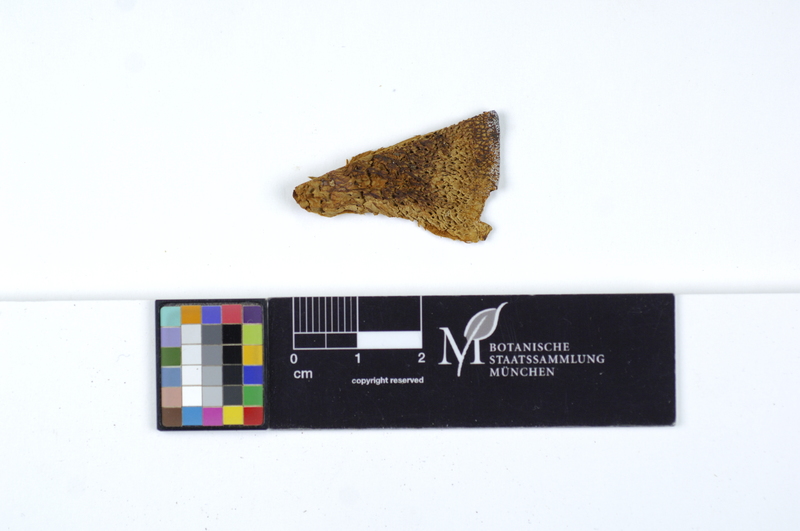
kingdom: Fungi
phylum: Basidiomycota
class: Agaricomycetes
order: Hymenochaetales
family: Hymenochaetaceae
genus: Coltricia
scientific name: Coltricia montagnei
